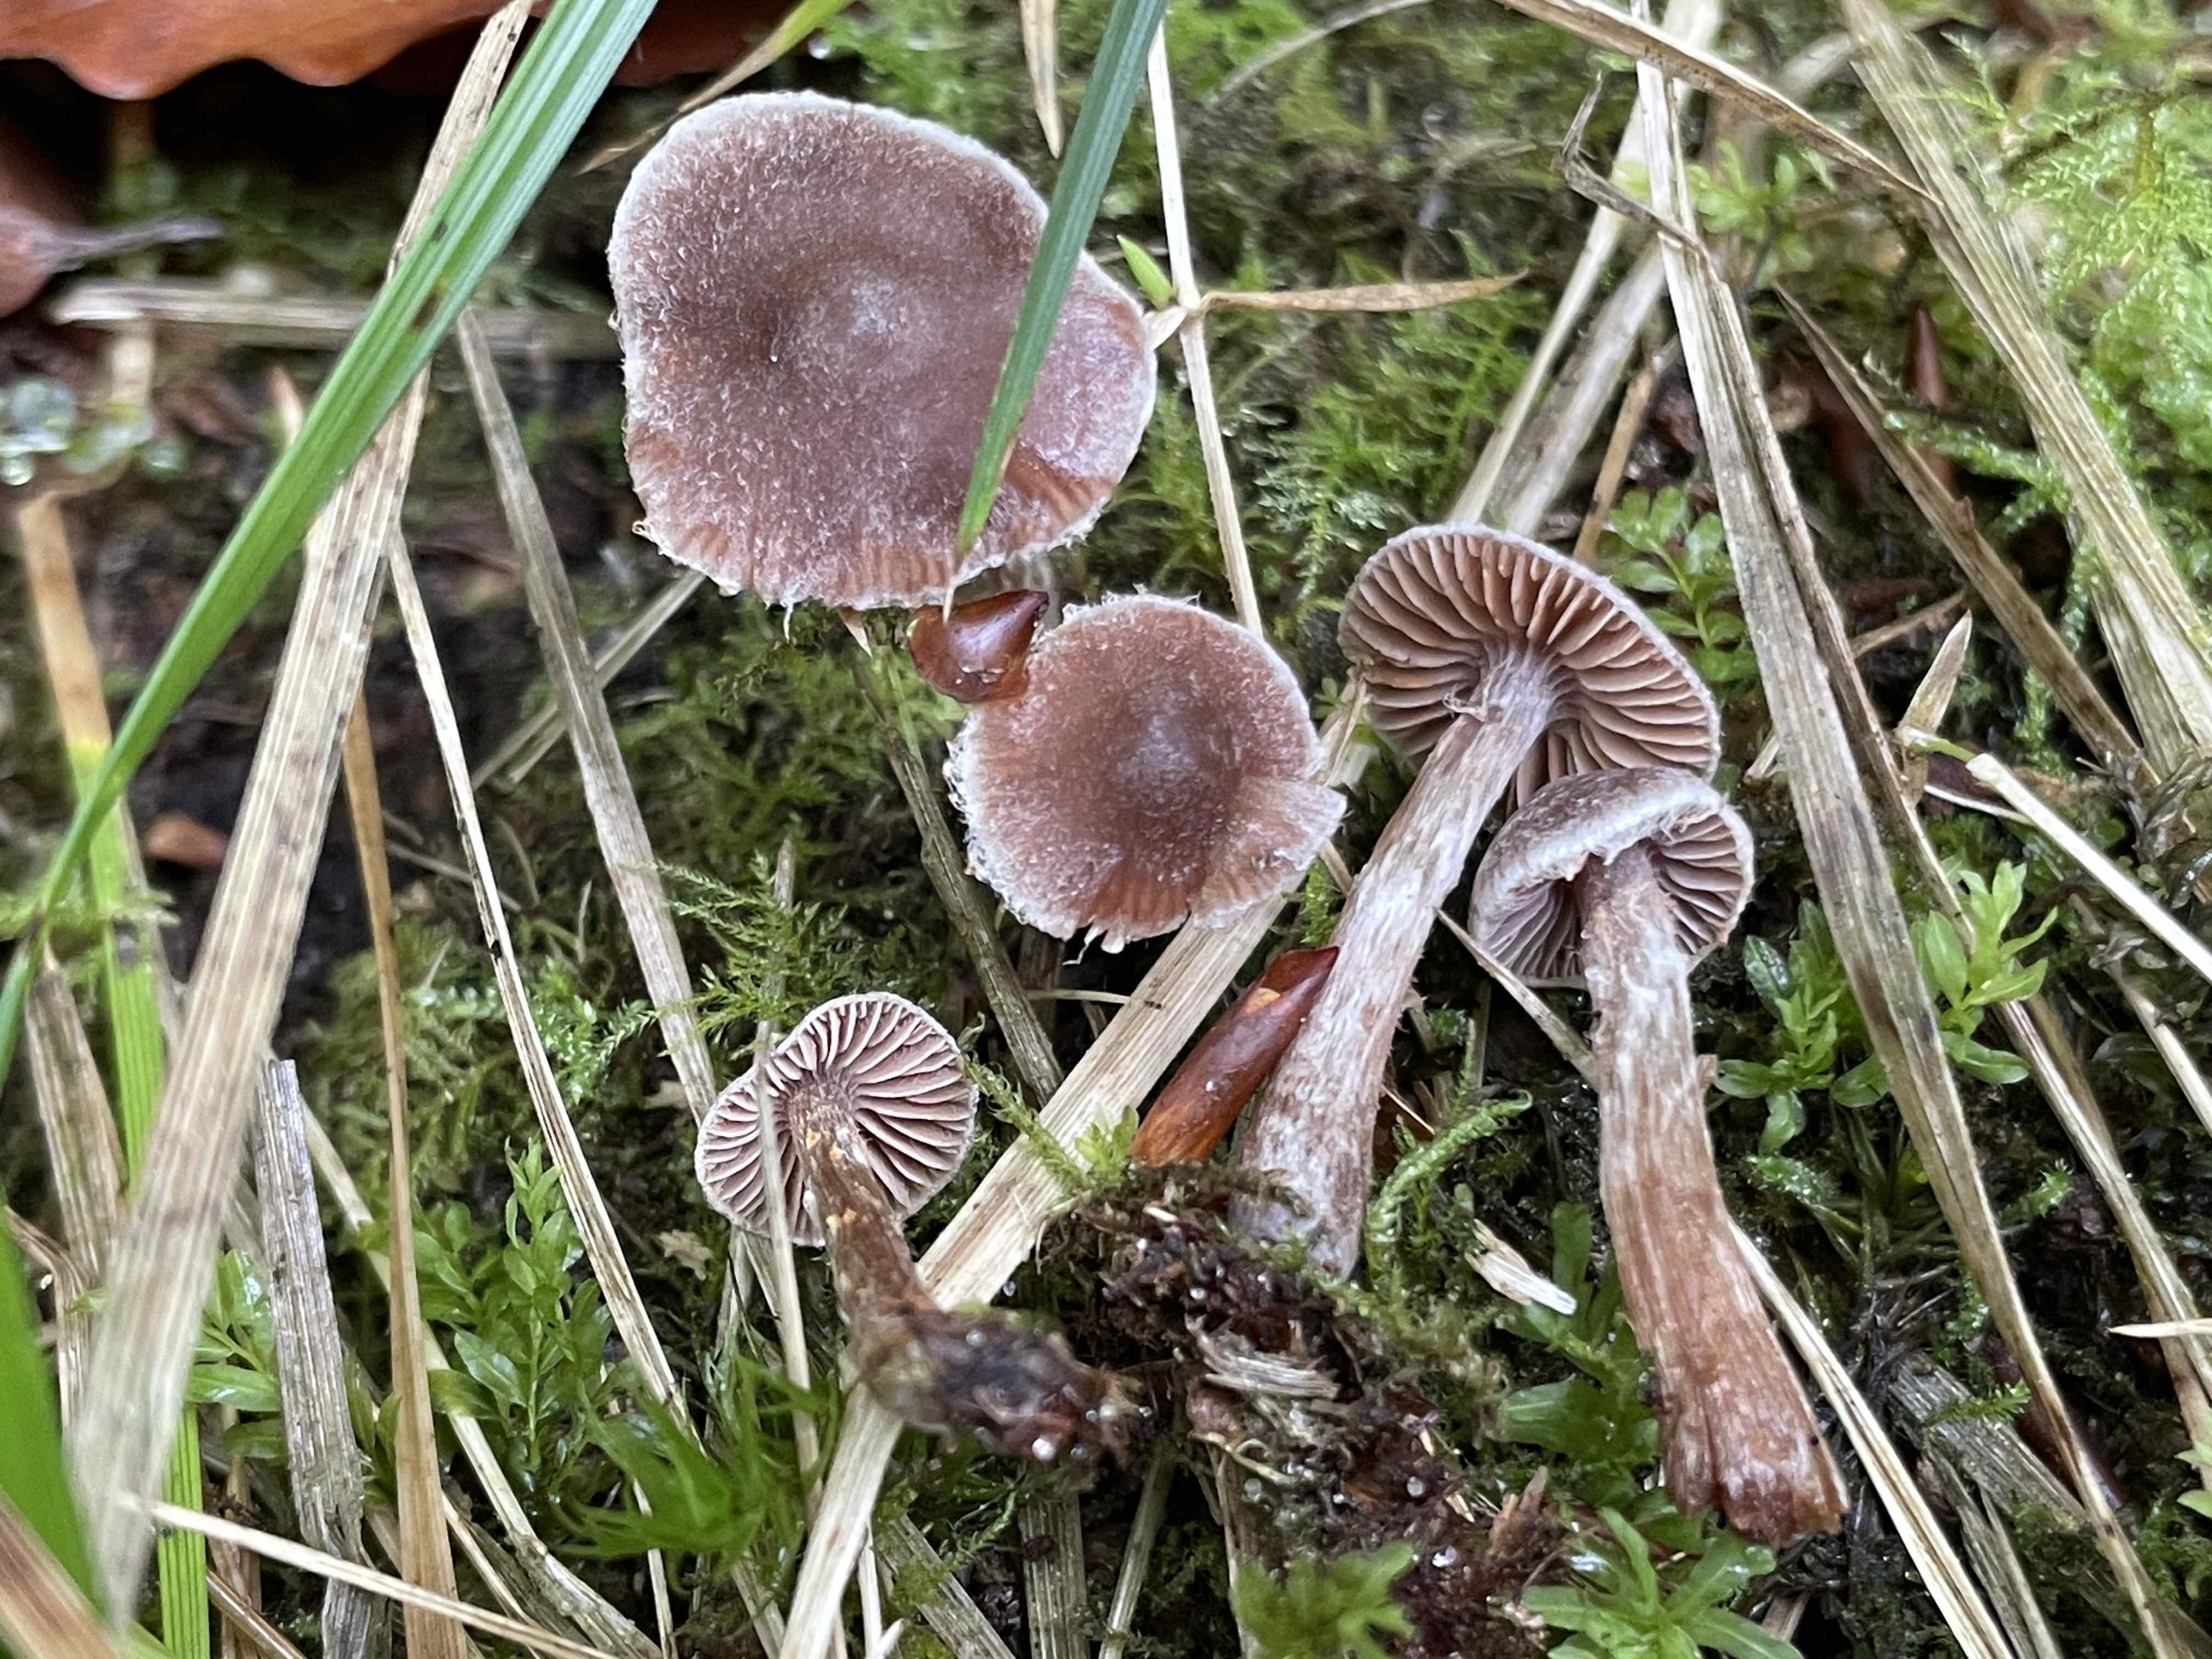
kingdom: Fungi
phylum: Basidiomycota
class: Agaricomycetes
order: Agaricales
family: Cortinariaceae
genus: Cortinarius
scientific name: Cortinarius pilatii
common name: Piláts slørhat
